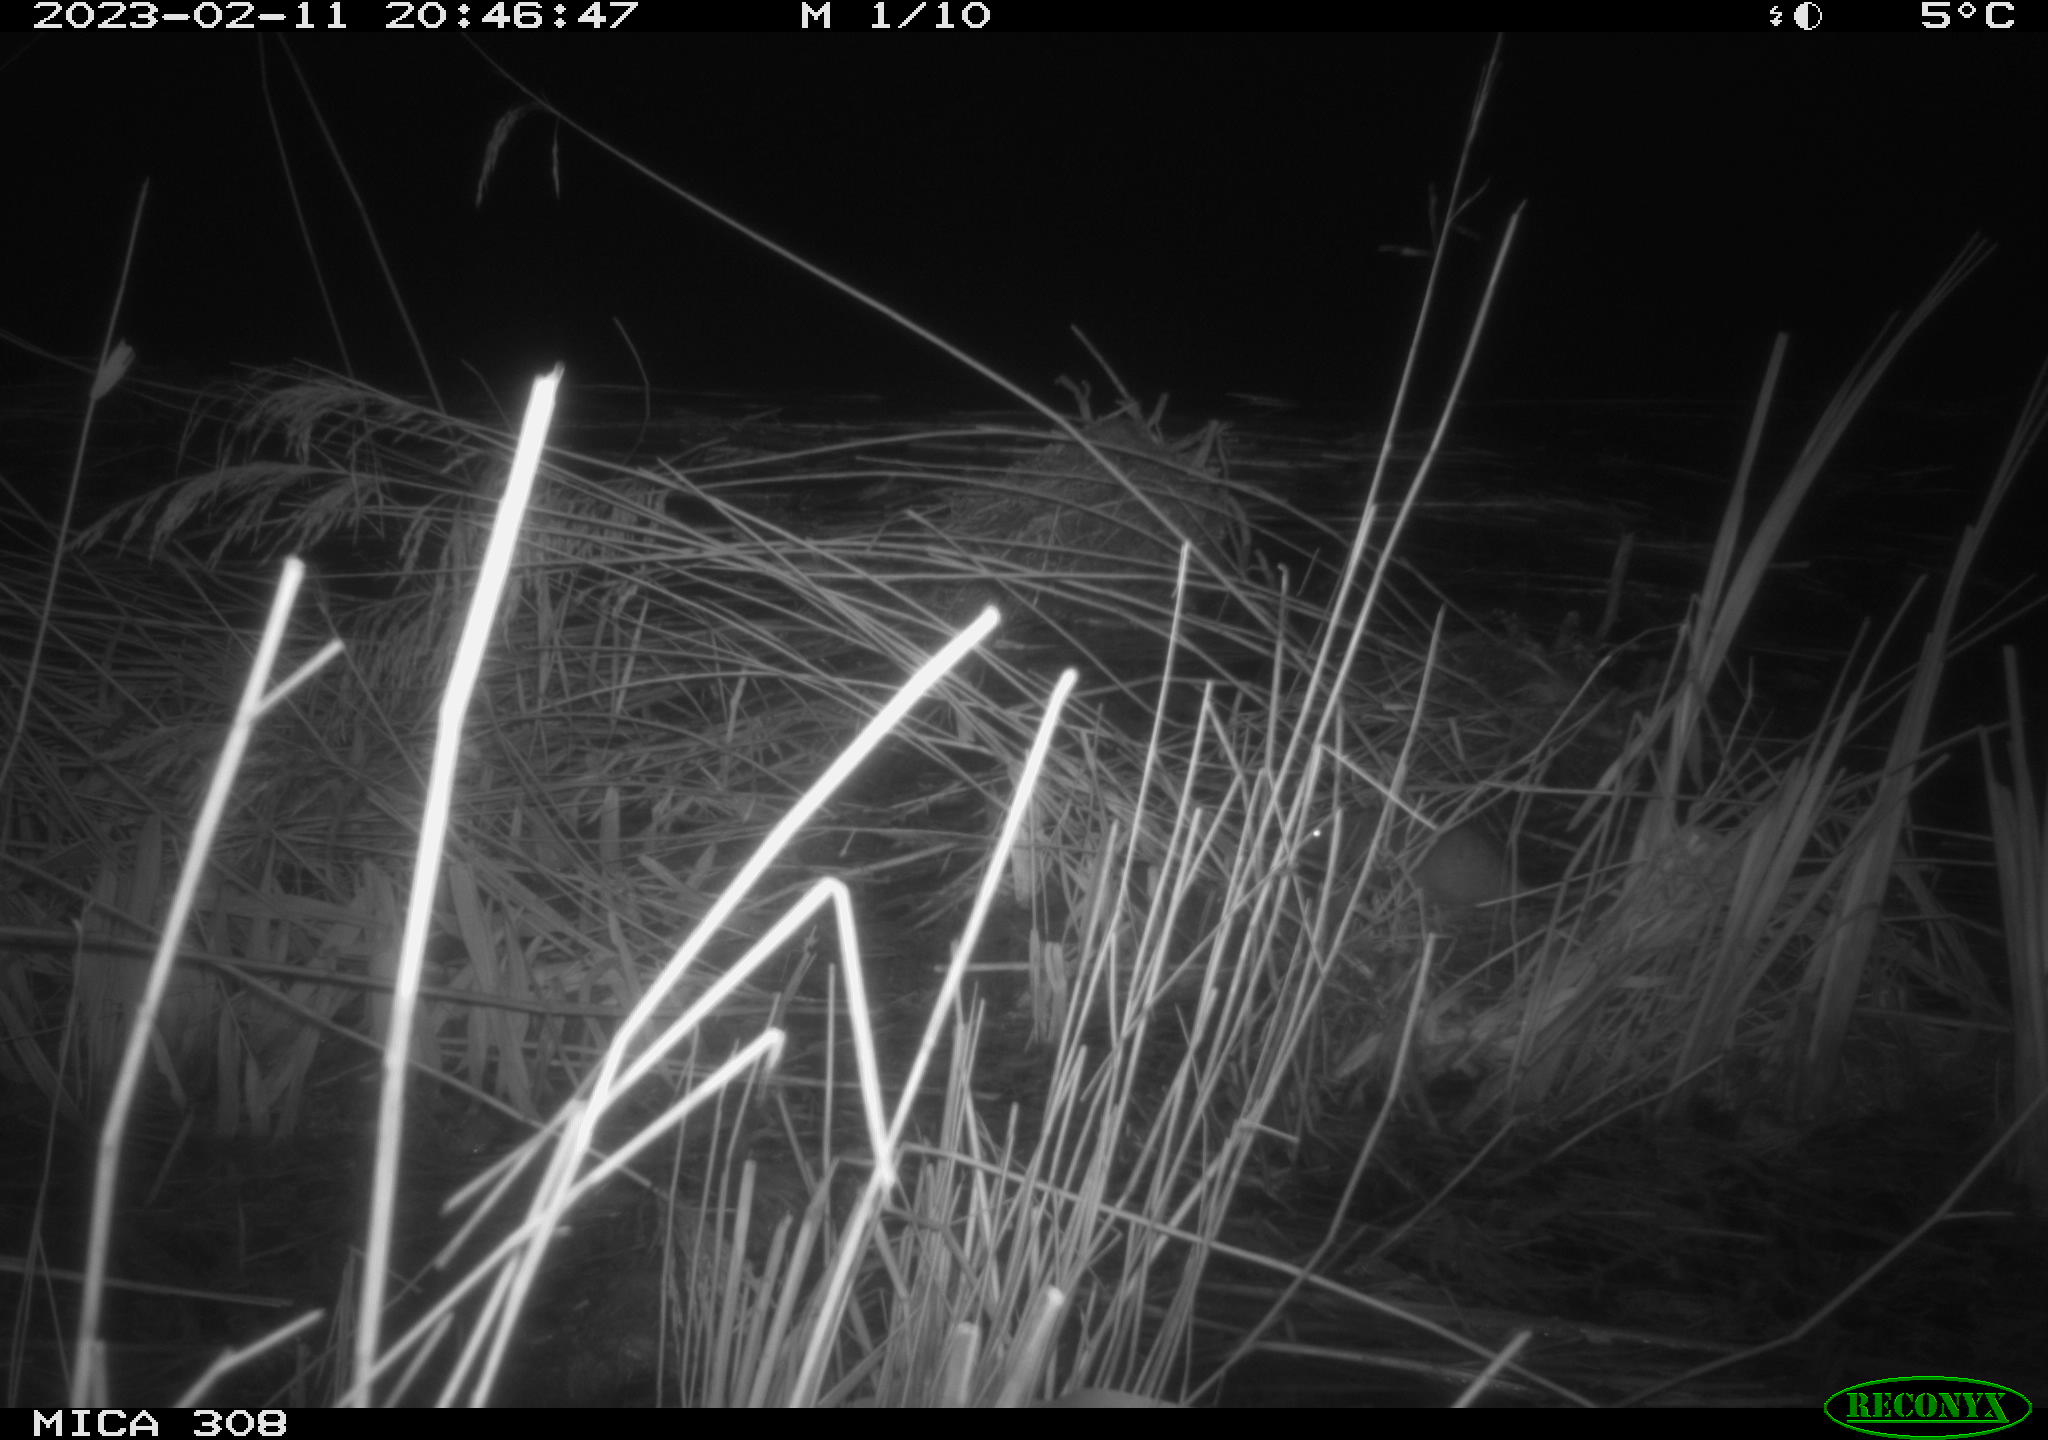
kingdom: Animalia
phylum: Chordata
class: Mammalia
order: Rodentia
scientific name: Rodentia
